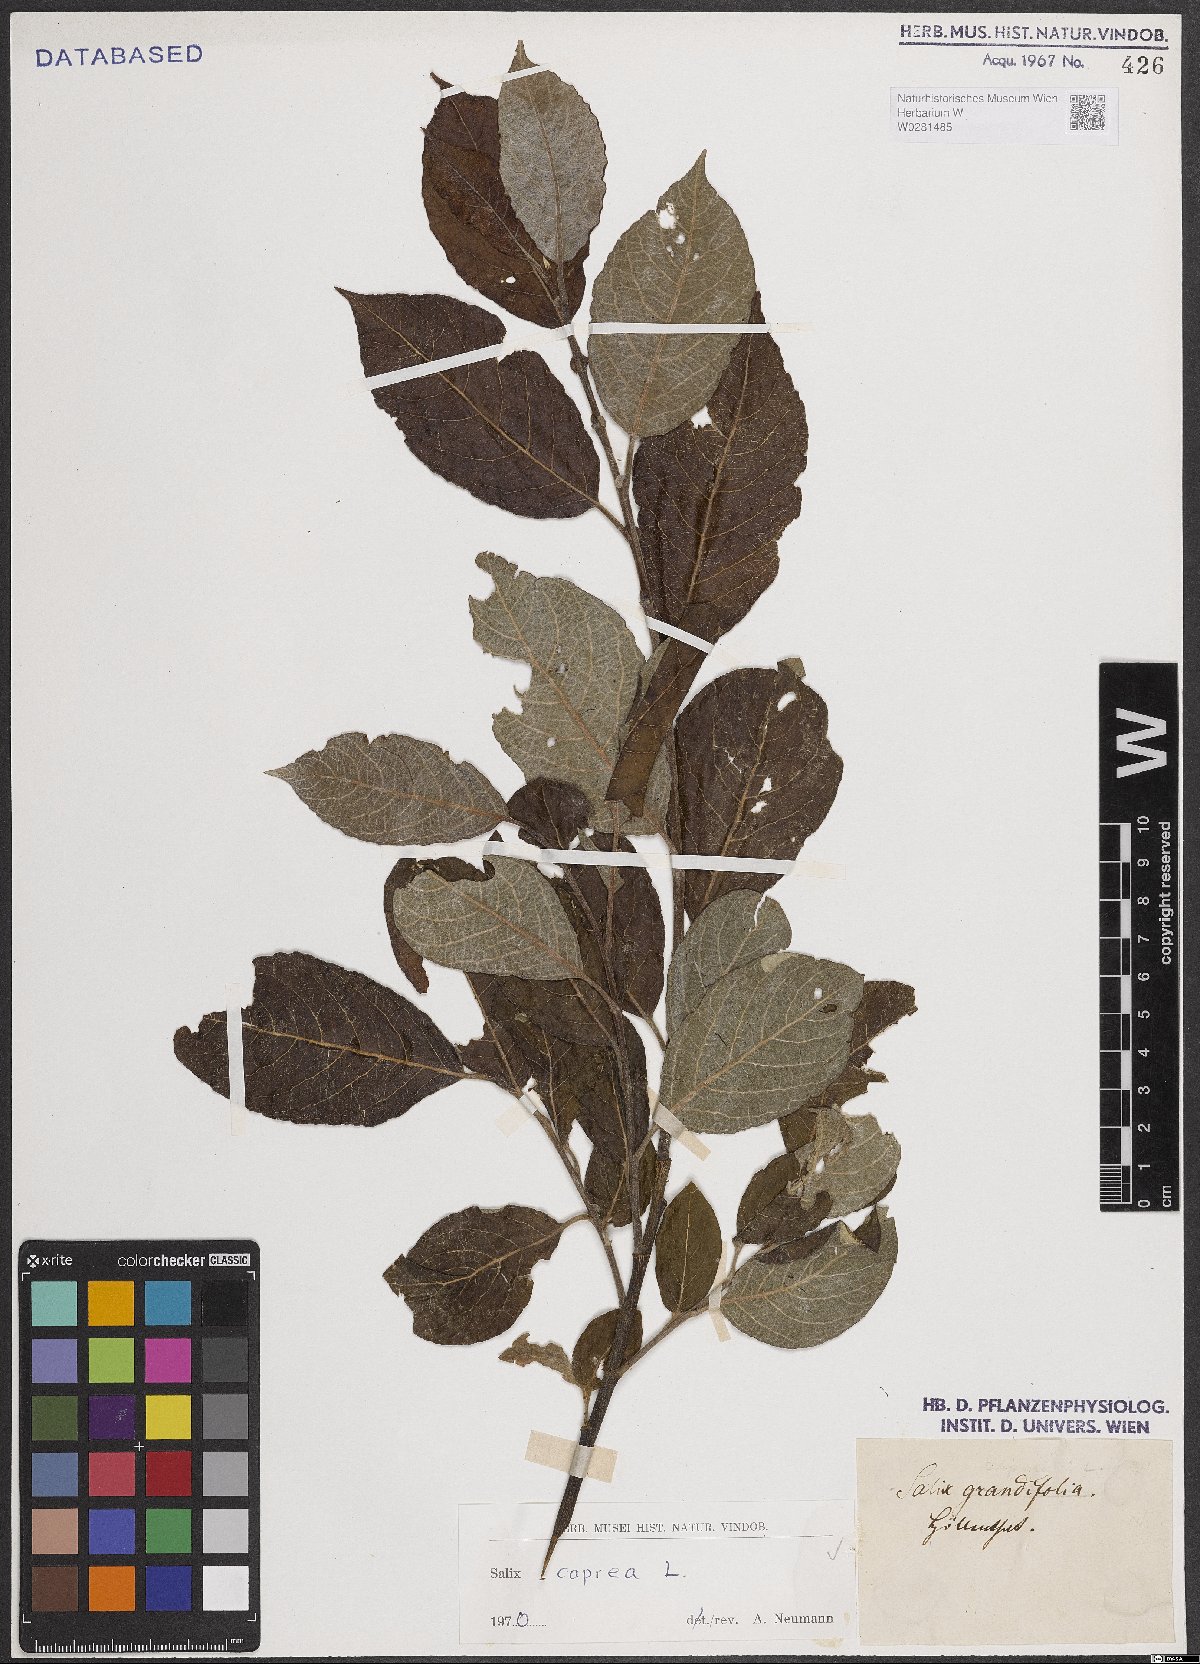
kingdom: Plantae
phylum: Tracheophyta
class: Magnoliopsida
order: Malpighiales
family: Salicaceae
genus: Salix
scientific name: Salix caprea
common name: Goat willow
